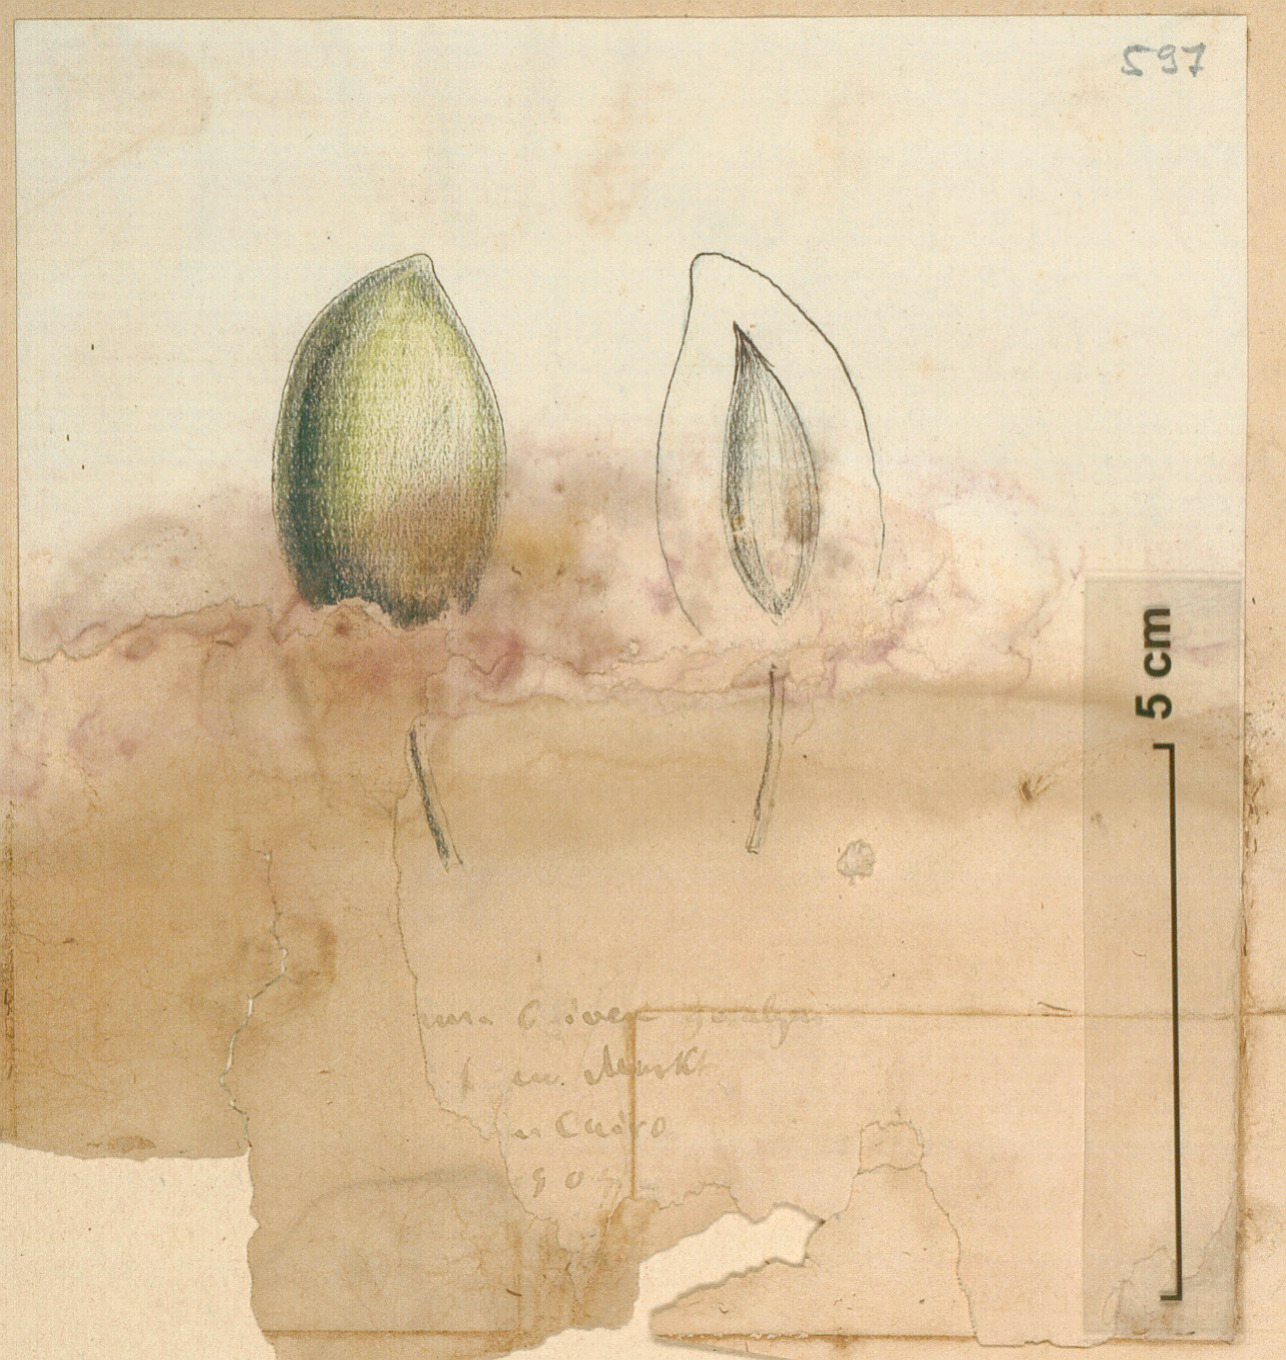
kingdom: Plantae
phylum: Tracheophyta
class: Magnoliopsida
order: Lamiales
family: Oleaceae
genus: Olea
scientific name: Olea europaea
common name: Olive
